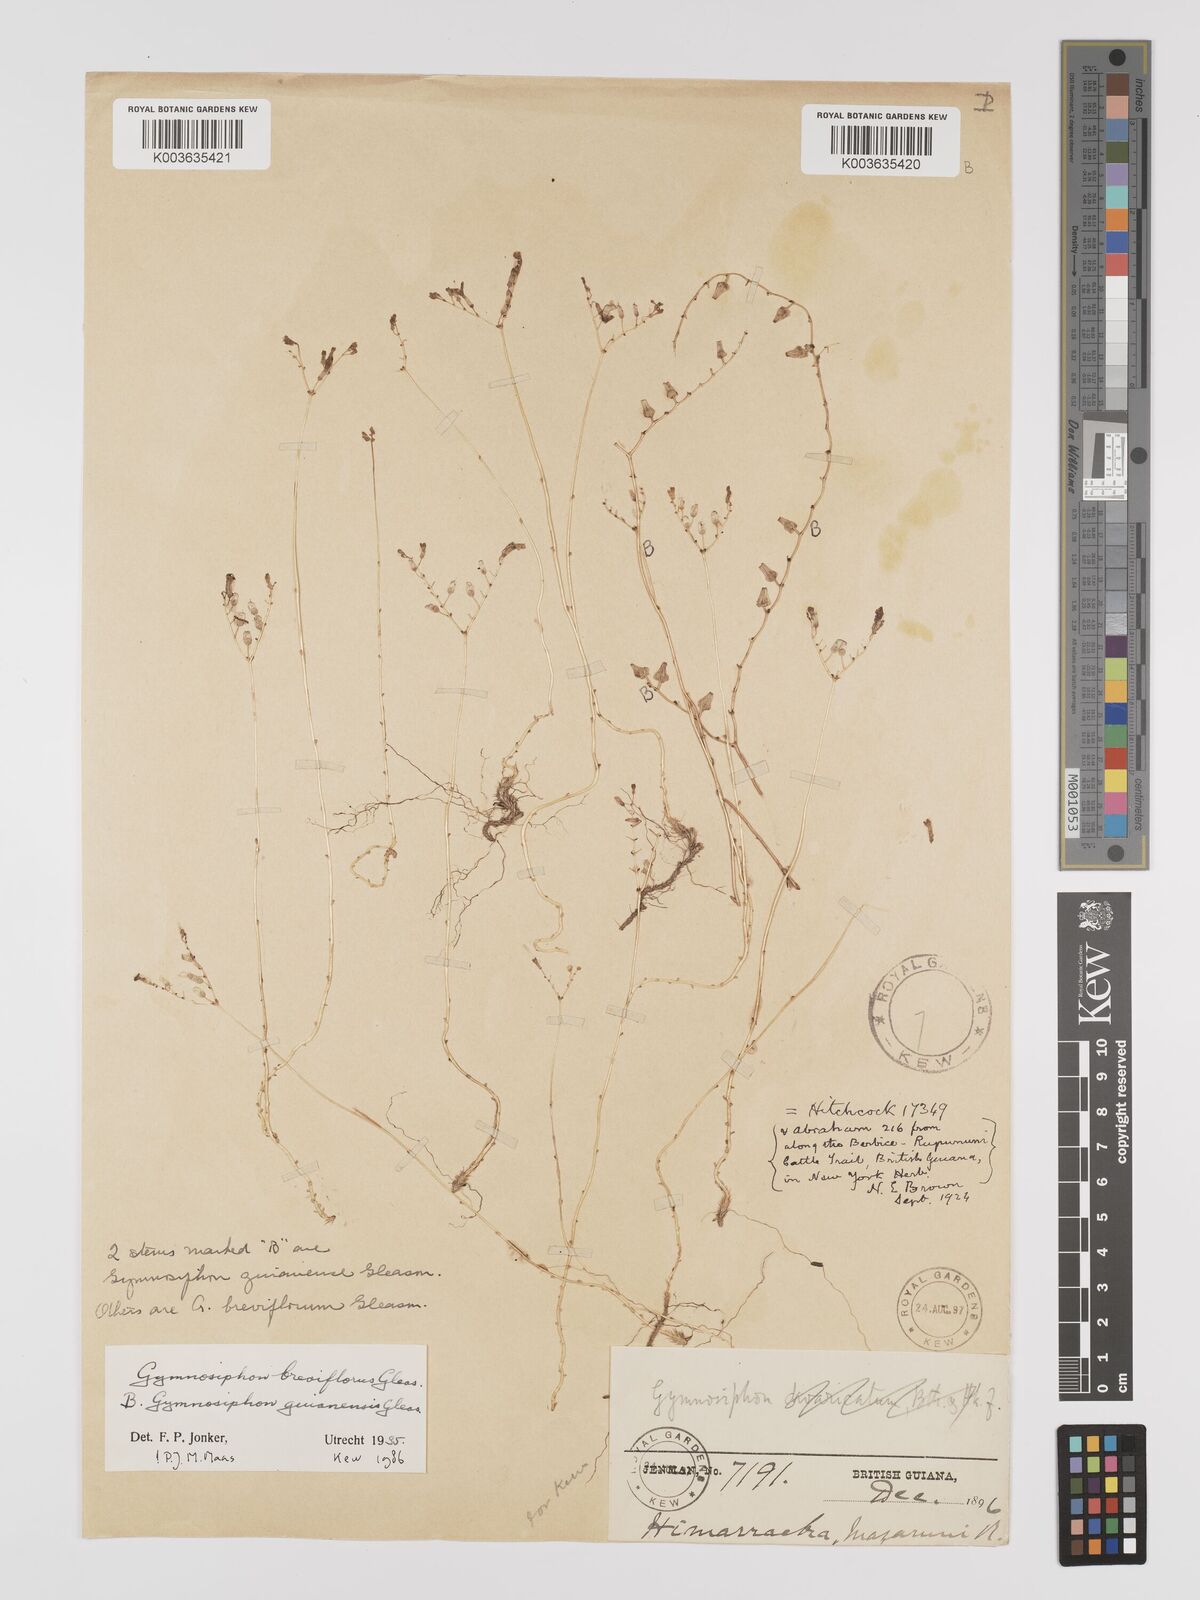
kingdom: Plantae
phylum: Tracheophyta
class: Liliopsida
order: Dioscoreales
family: Burmanniaceae
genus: Gymnosiphon
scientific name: Gymnosiphon breviflorus
